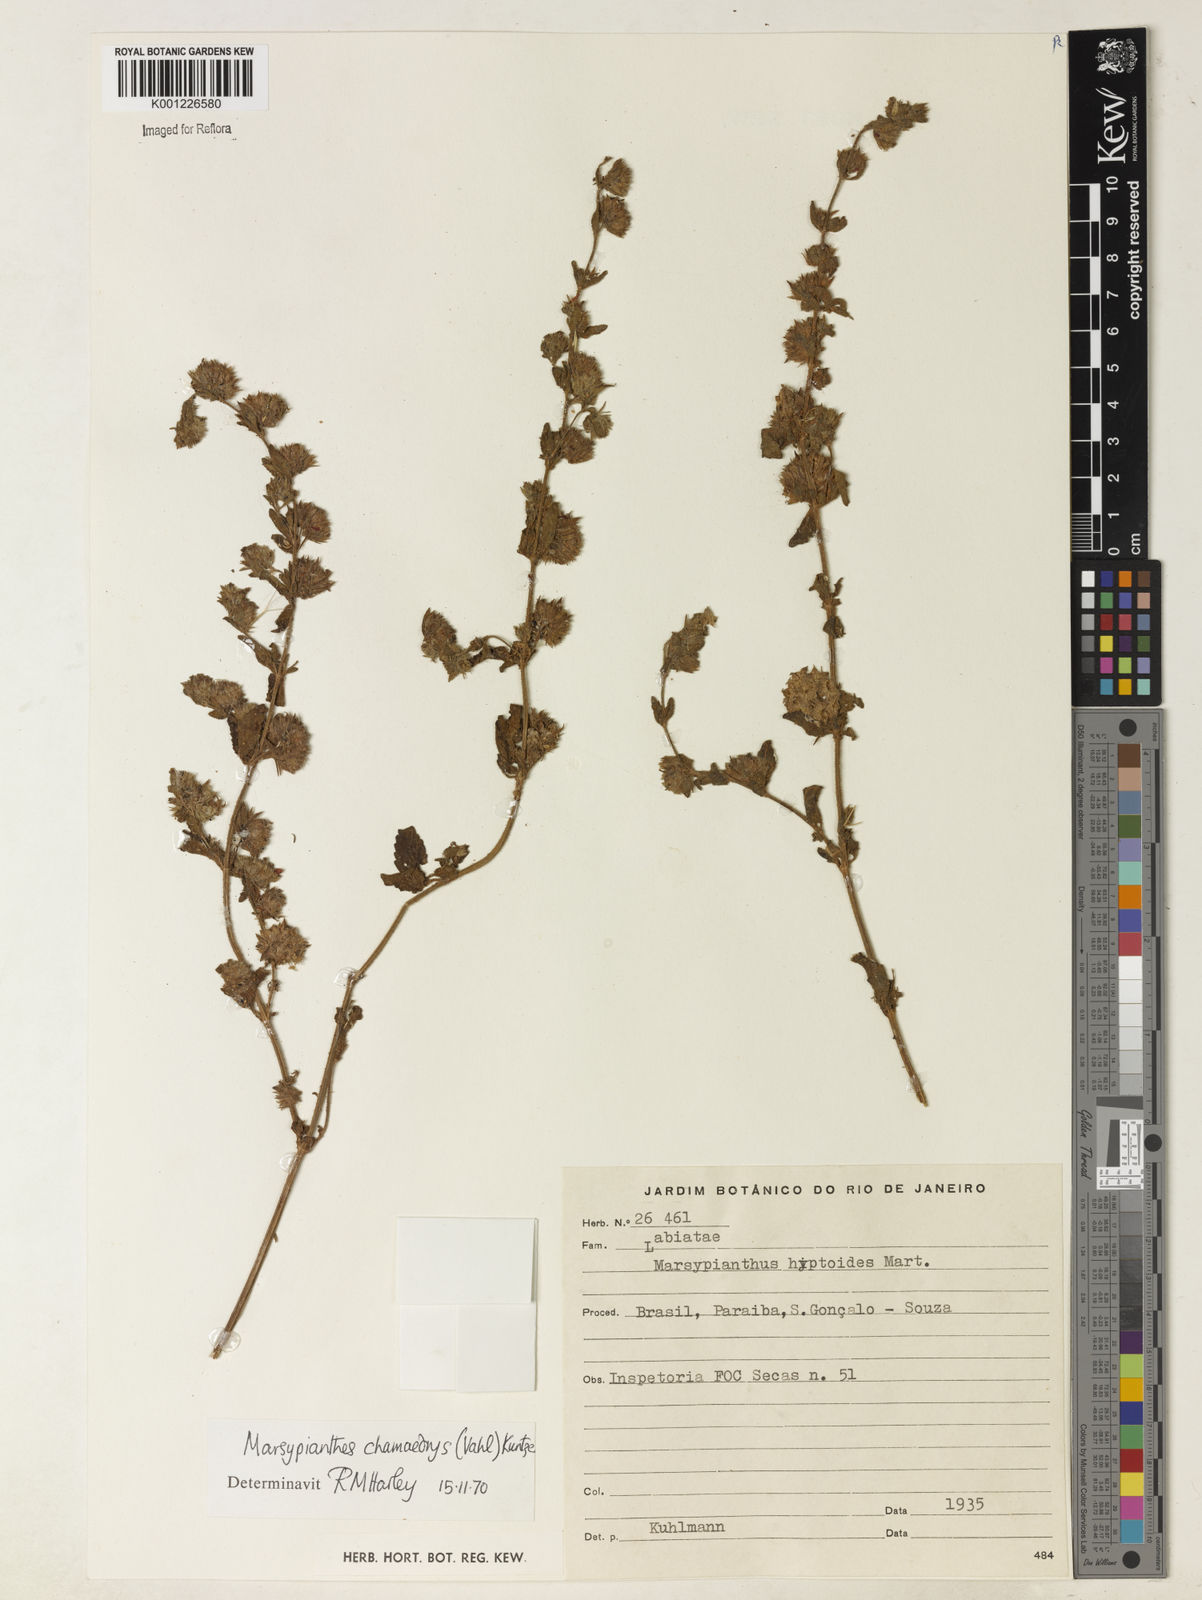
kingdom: Plantae
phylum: Tracheophyta
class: Magnoliopsida
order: Lamiales
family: Lamiaceae
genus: Marsypianthes
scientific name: Marsypianthes chamaedrys
